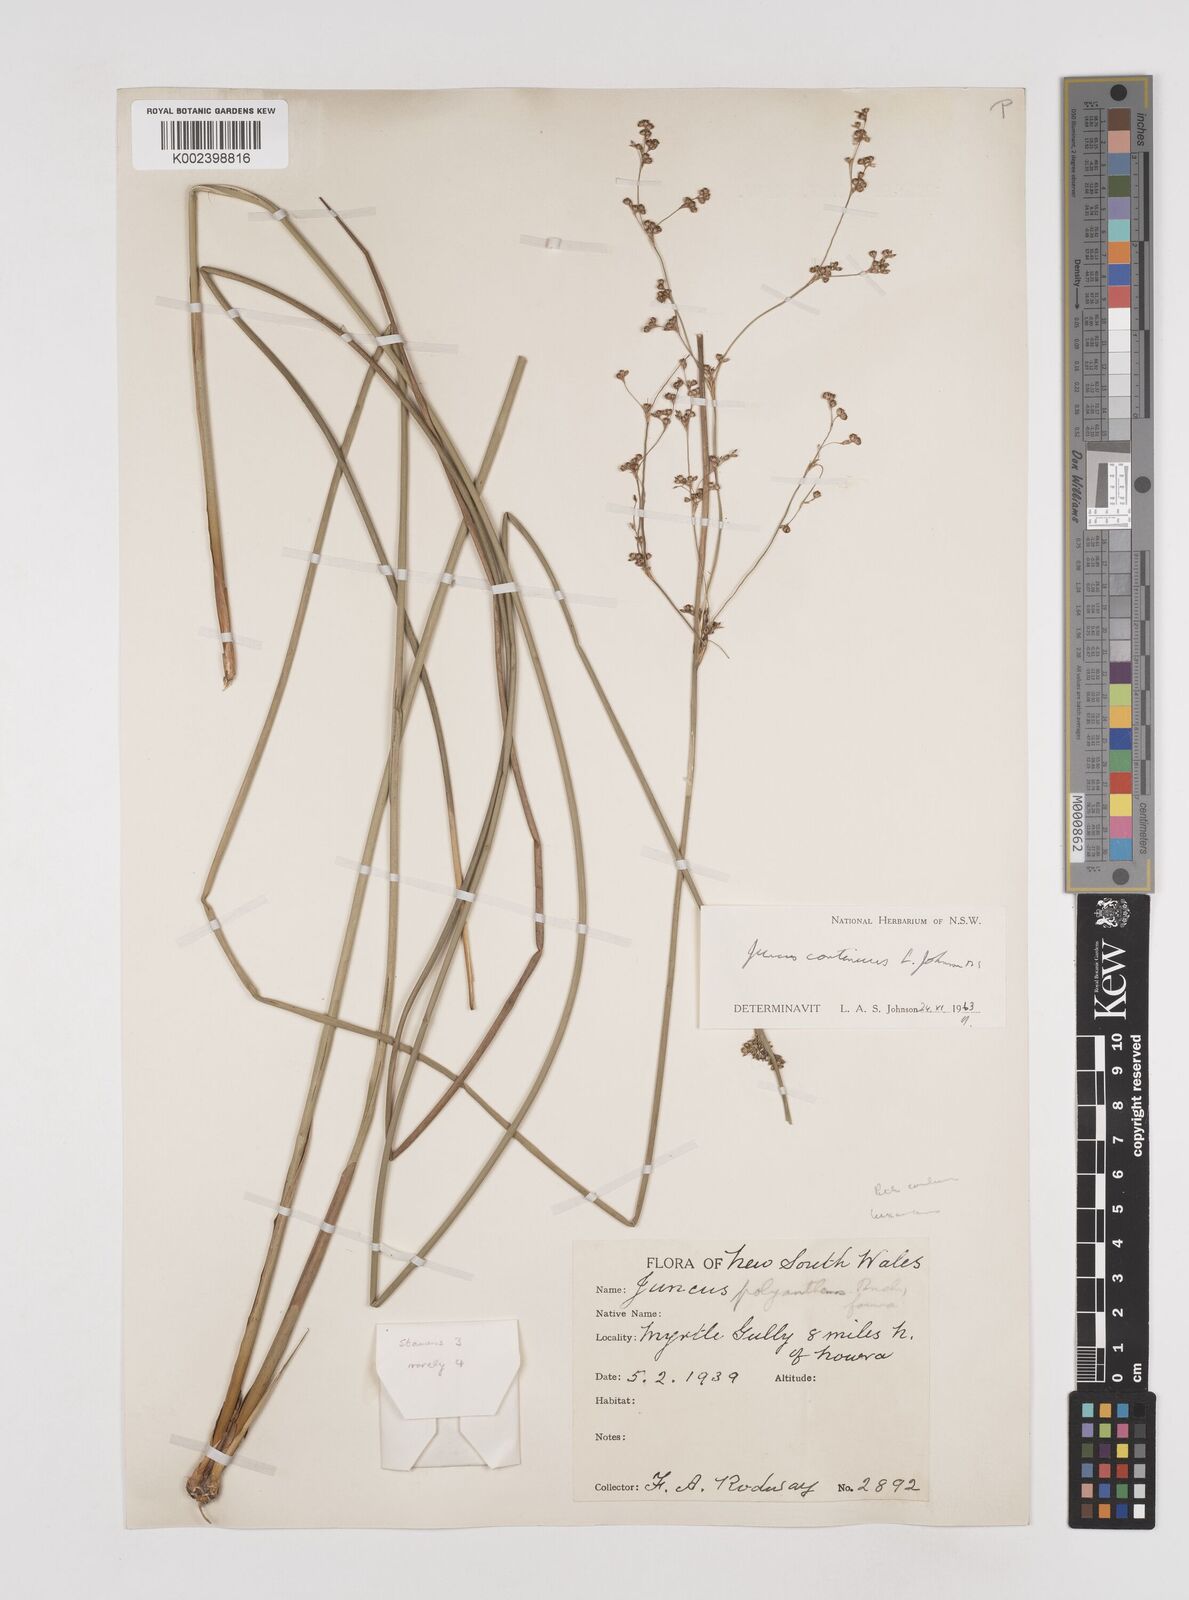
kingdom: Plantae
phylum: Tracheophyta
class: Liliopsida
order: Poales
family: Juncaceae
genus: Juncus
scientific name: Juncus
